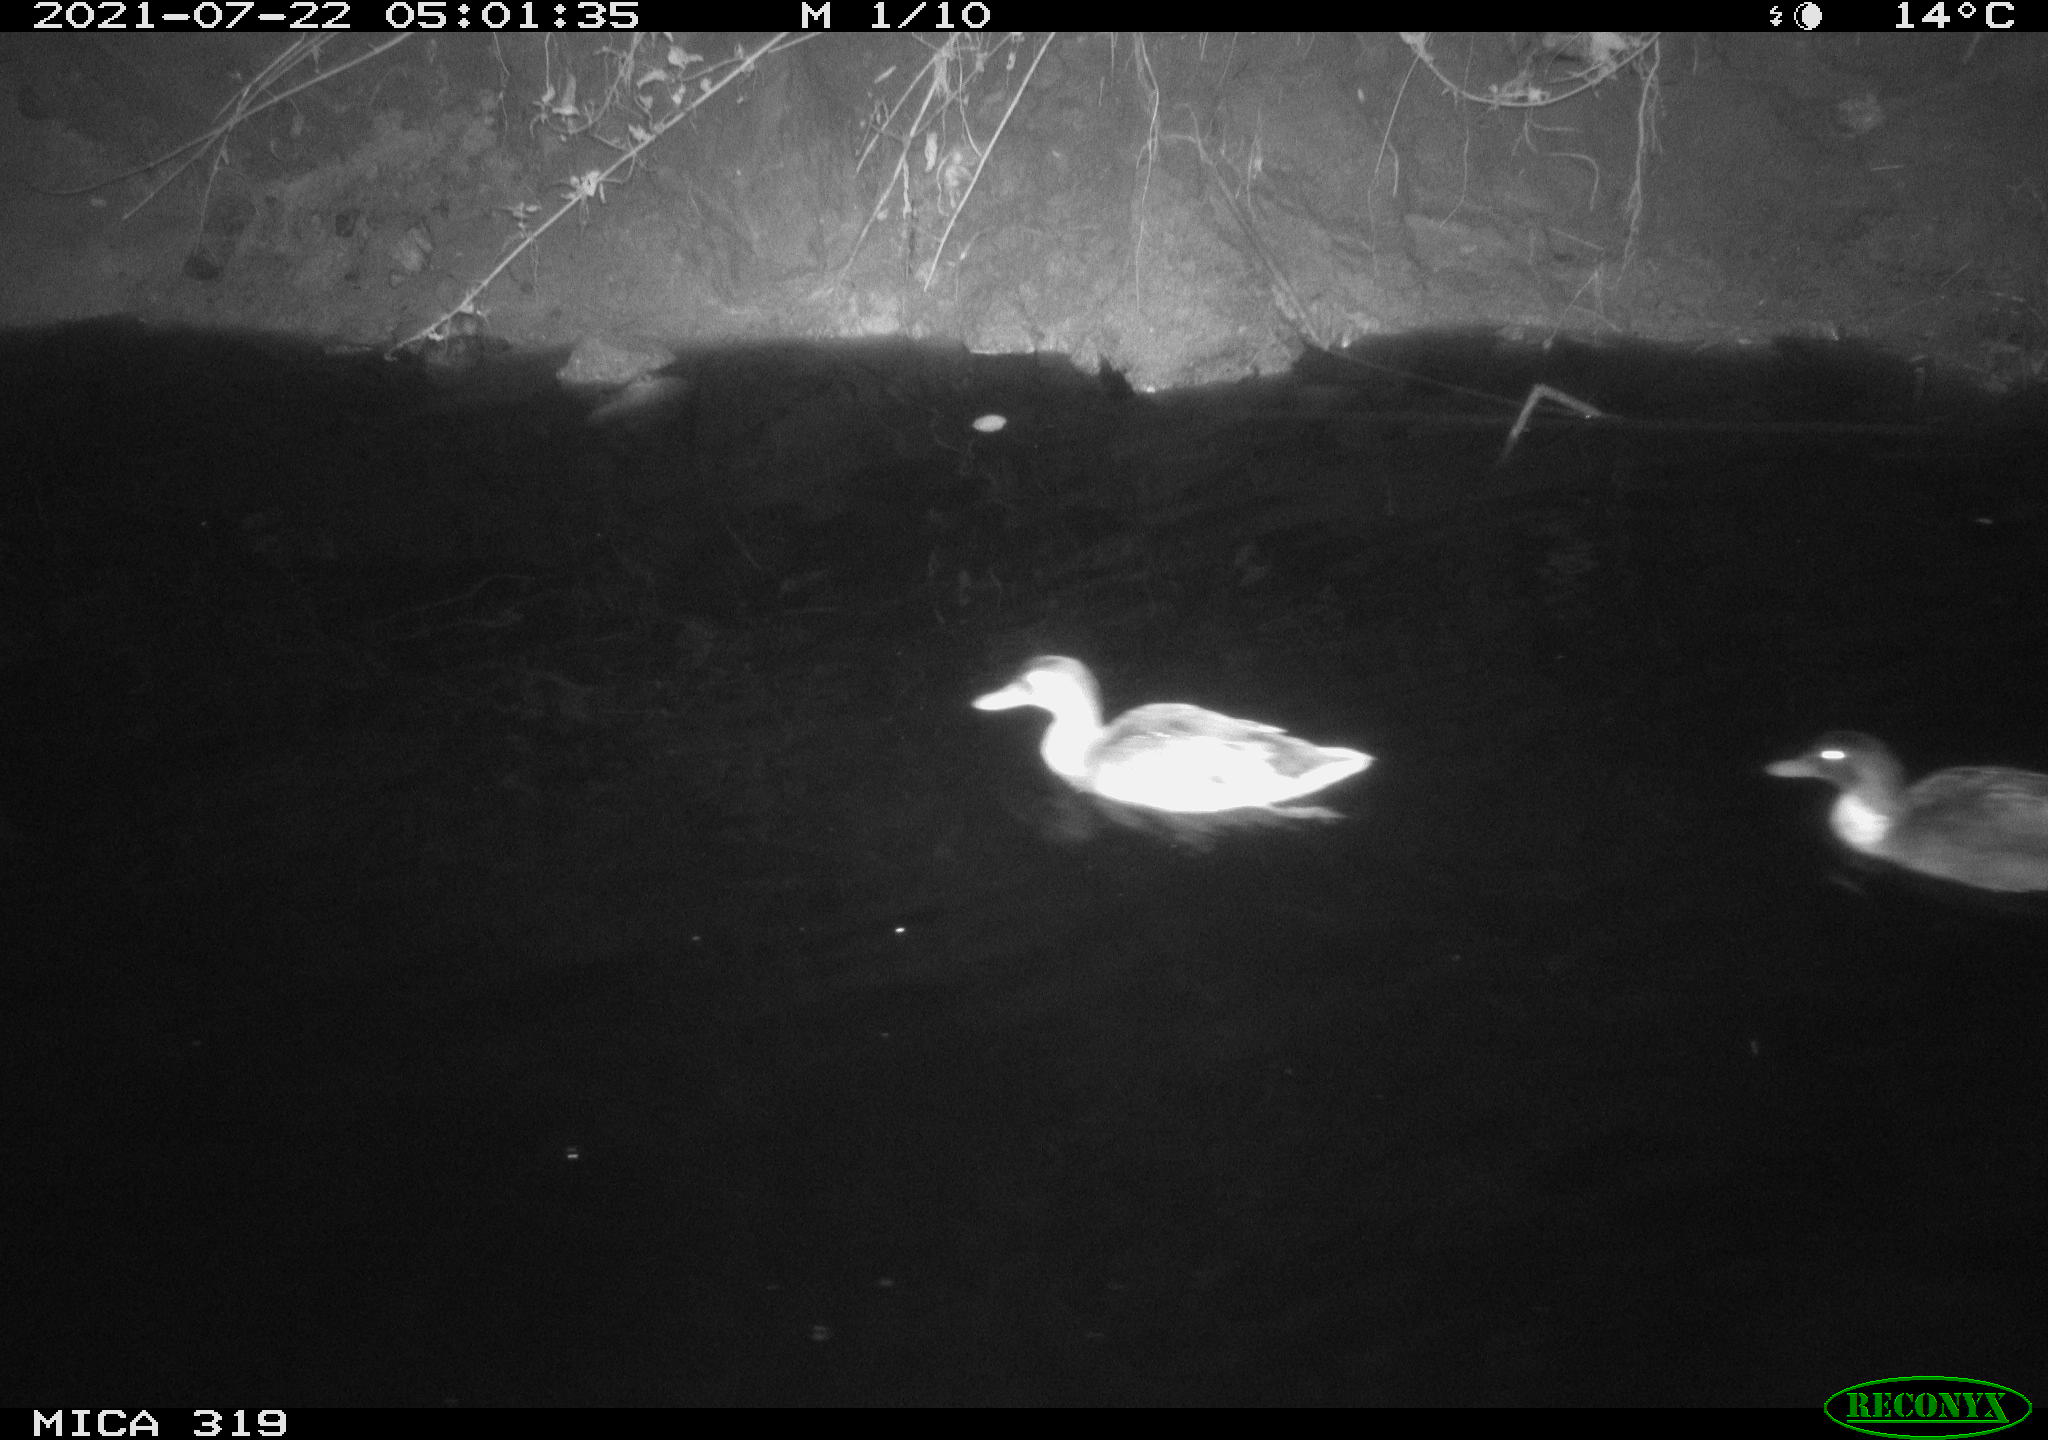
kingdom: Animalia
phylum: Chordata
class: Aves
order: Anseriformes
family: Anatidae
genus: Anas
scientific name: Anas platyrhynchos
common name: Mallard
